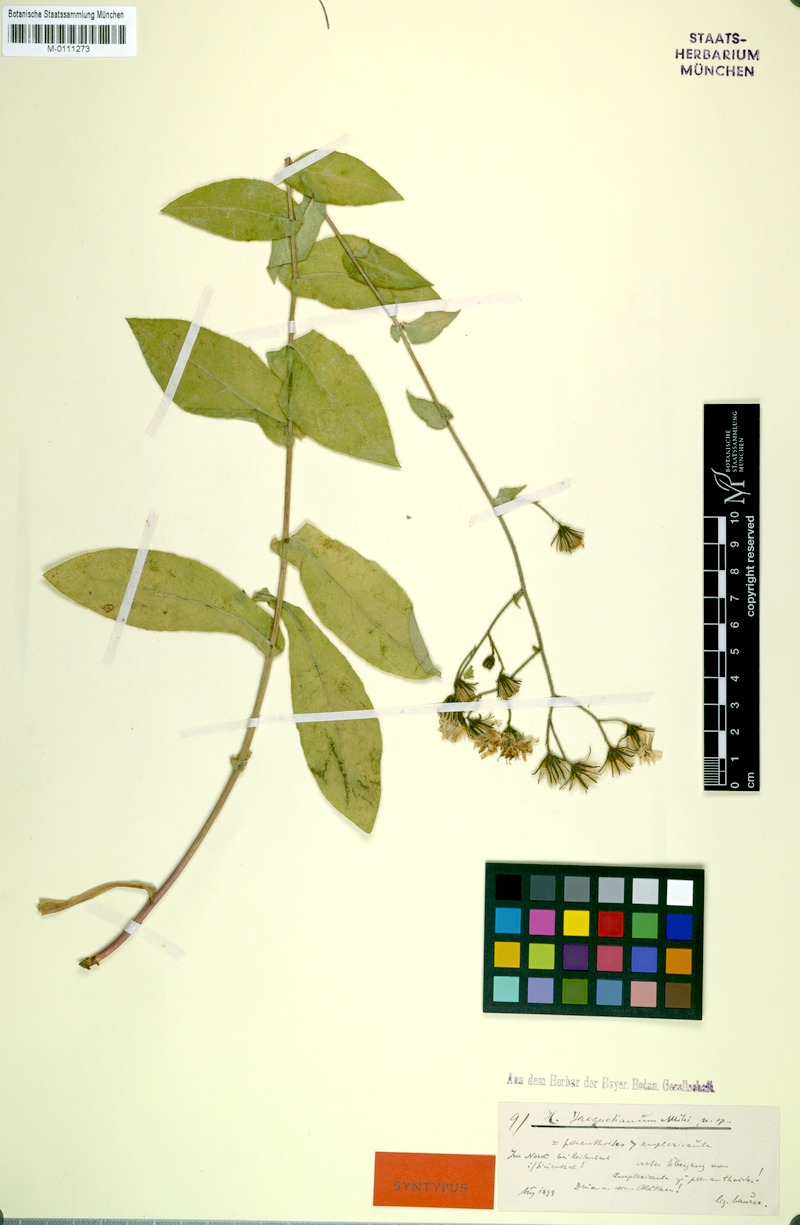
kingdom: Plantae
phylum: Tracheophyta
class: Magnoliopsida
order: Asterales
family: Asteraceae
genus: Hieracium
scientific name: Hieracium prenanthoides
